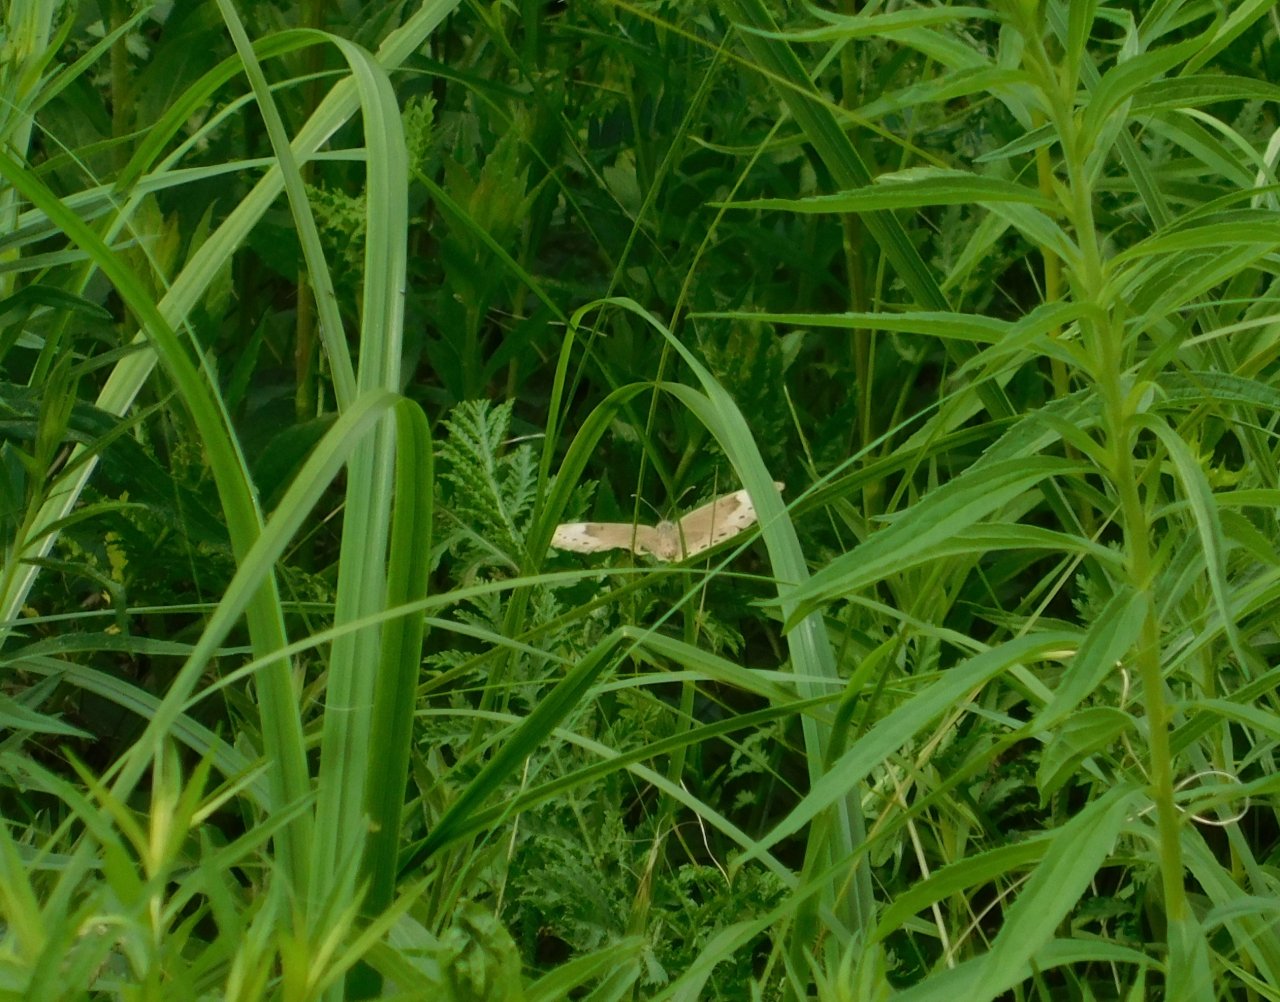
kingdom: Animalia
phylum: Arthropoda
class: Insecta
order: Lepidoptera
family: Nymphalidae
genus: Lethe
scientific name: Lethe eurydice
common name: Eyed Brown
